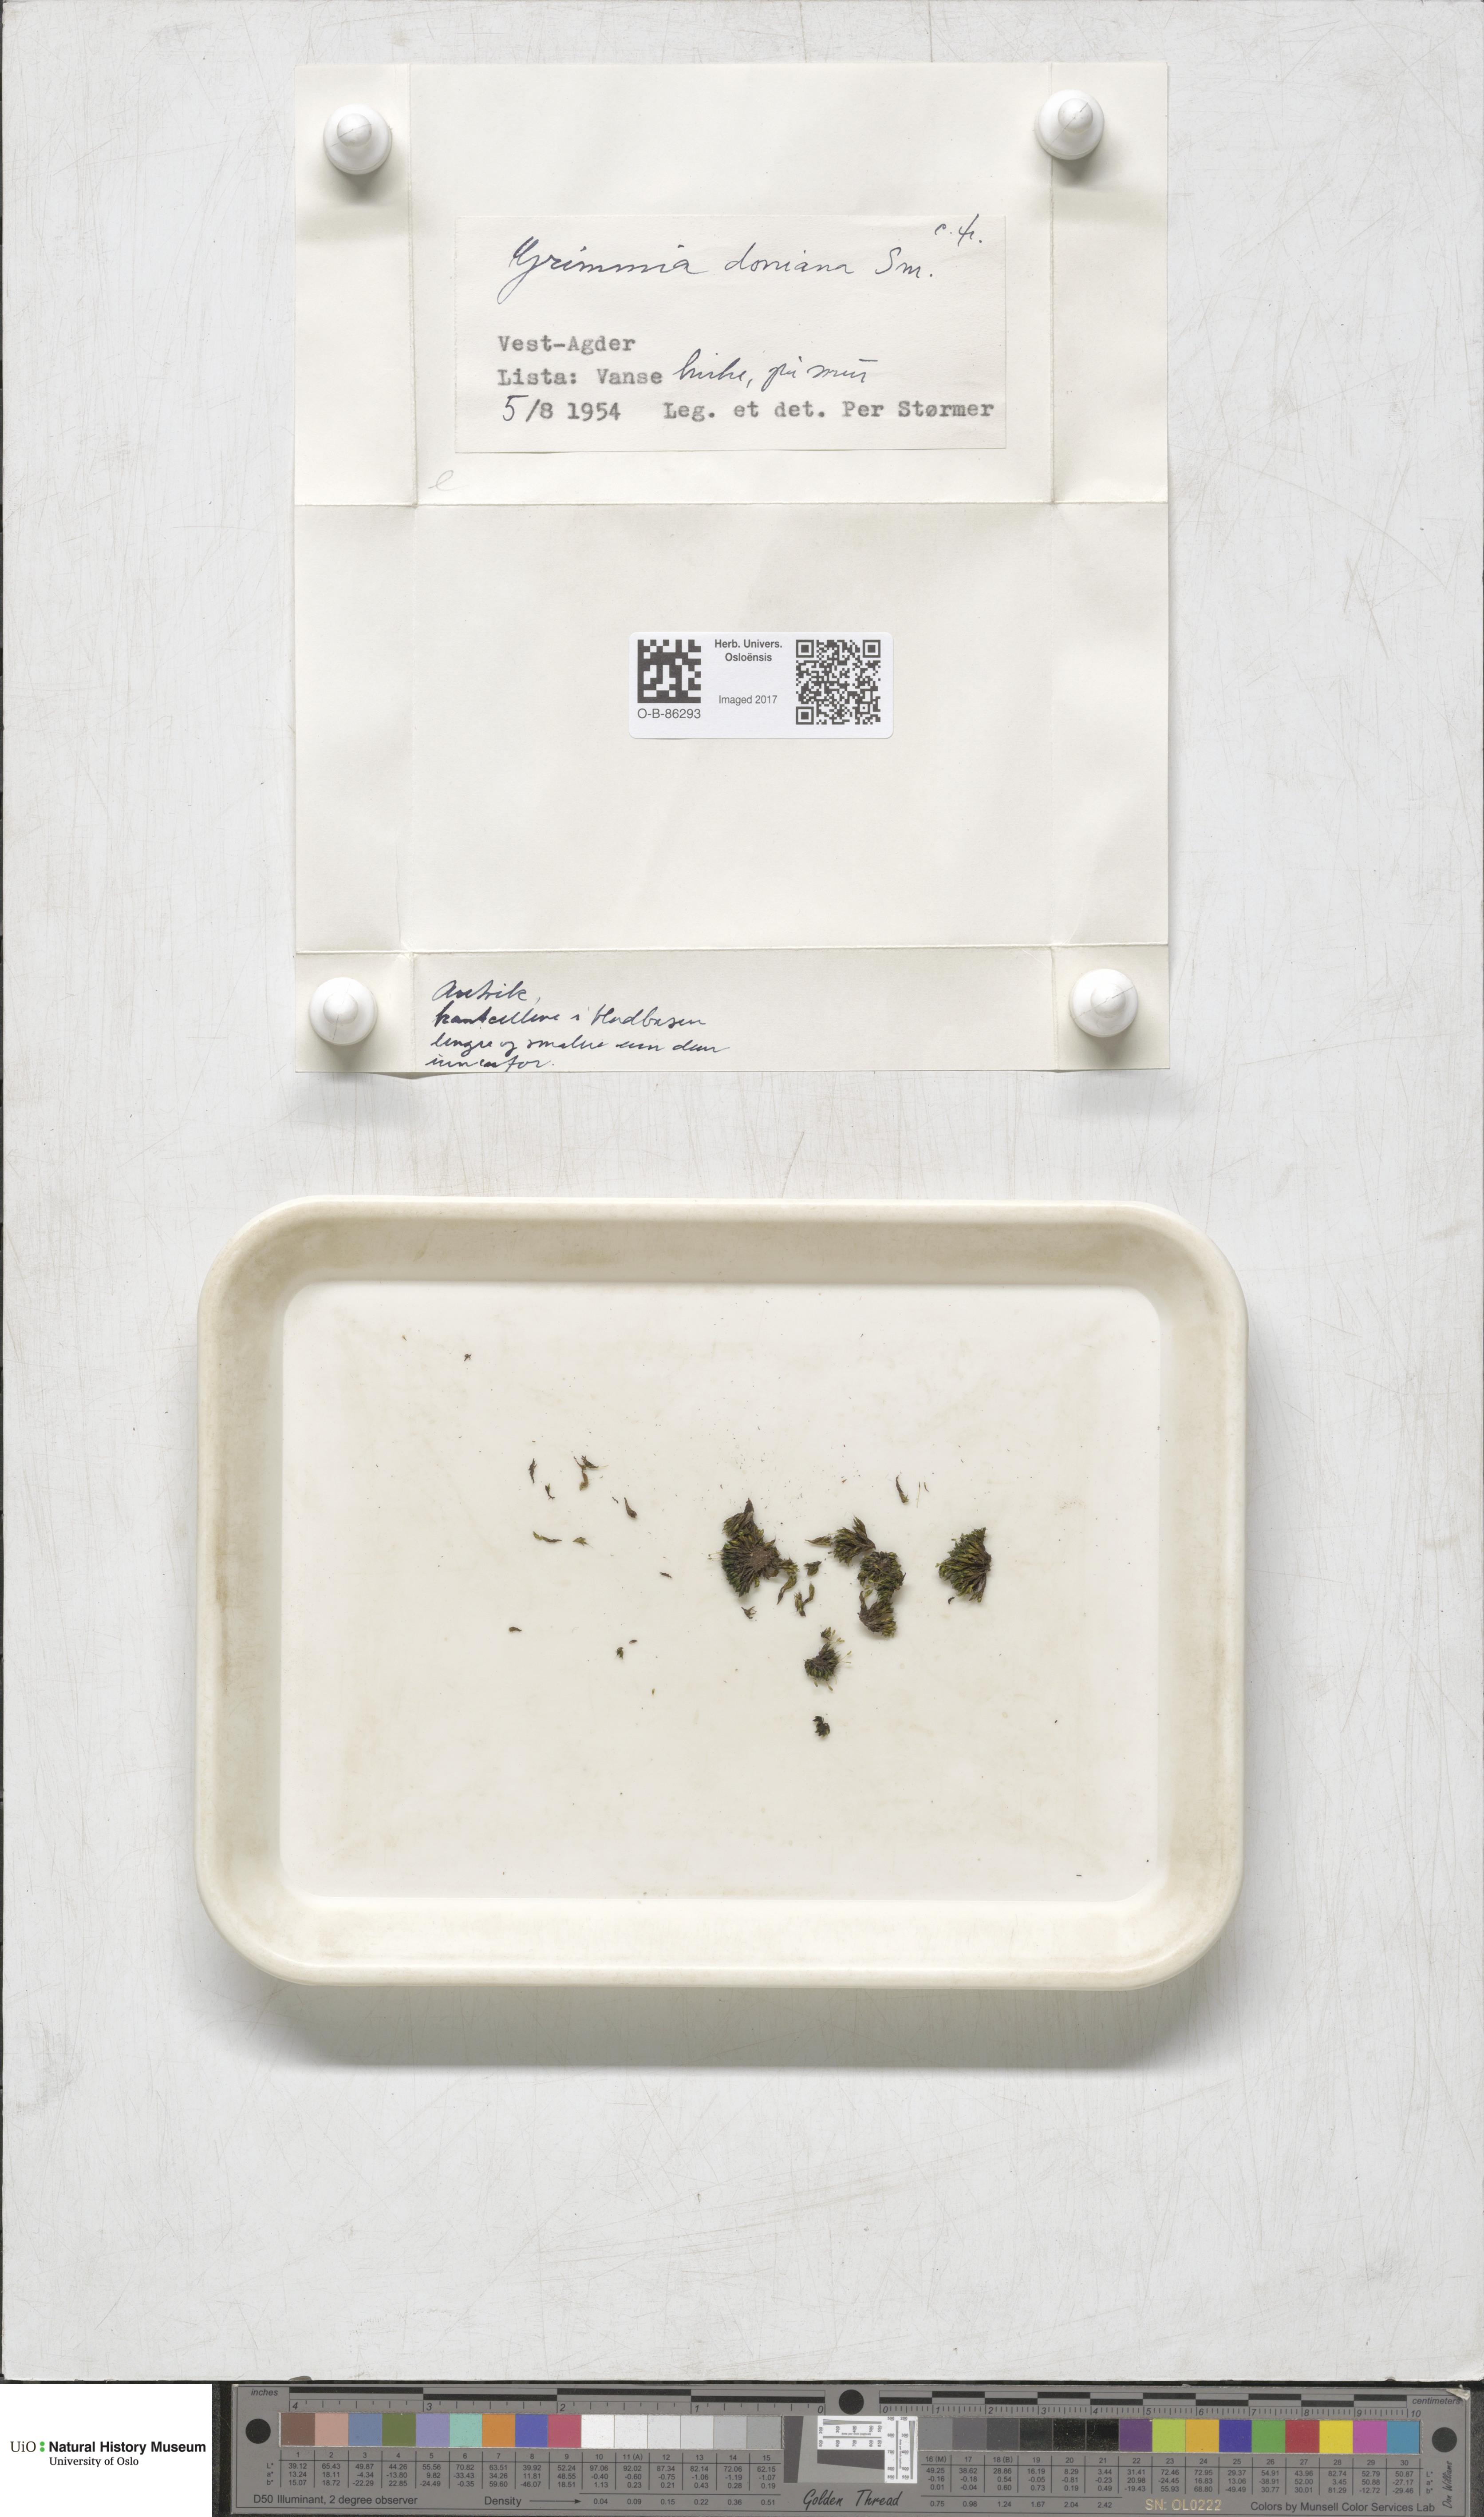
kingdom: Plantae
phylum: Bryophyta
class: Bryopsida
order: Grimmiales
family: Grimmiaceae
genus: Grimmia
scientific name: Grimmia donniana
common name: Donn's grimmia
